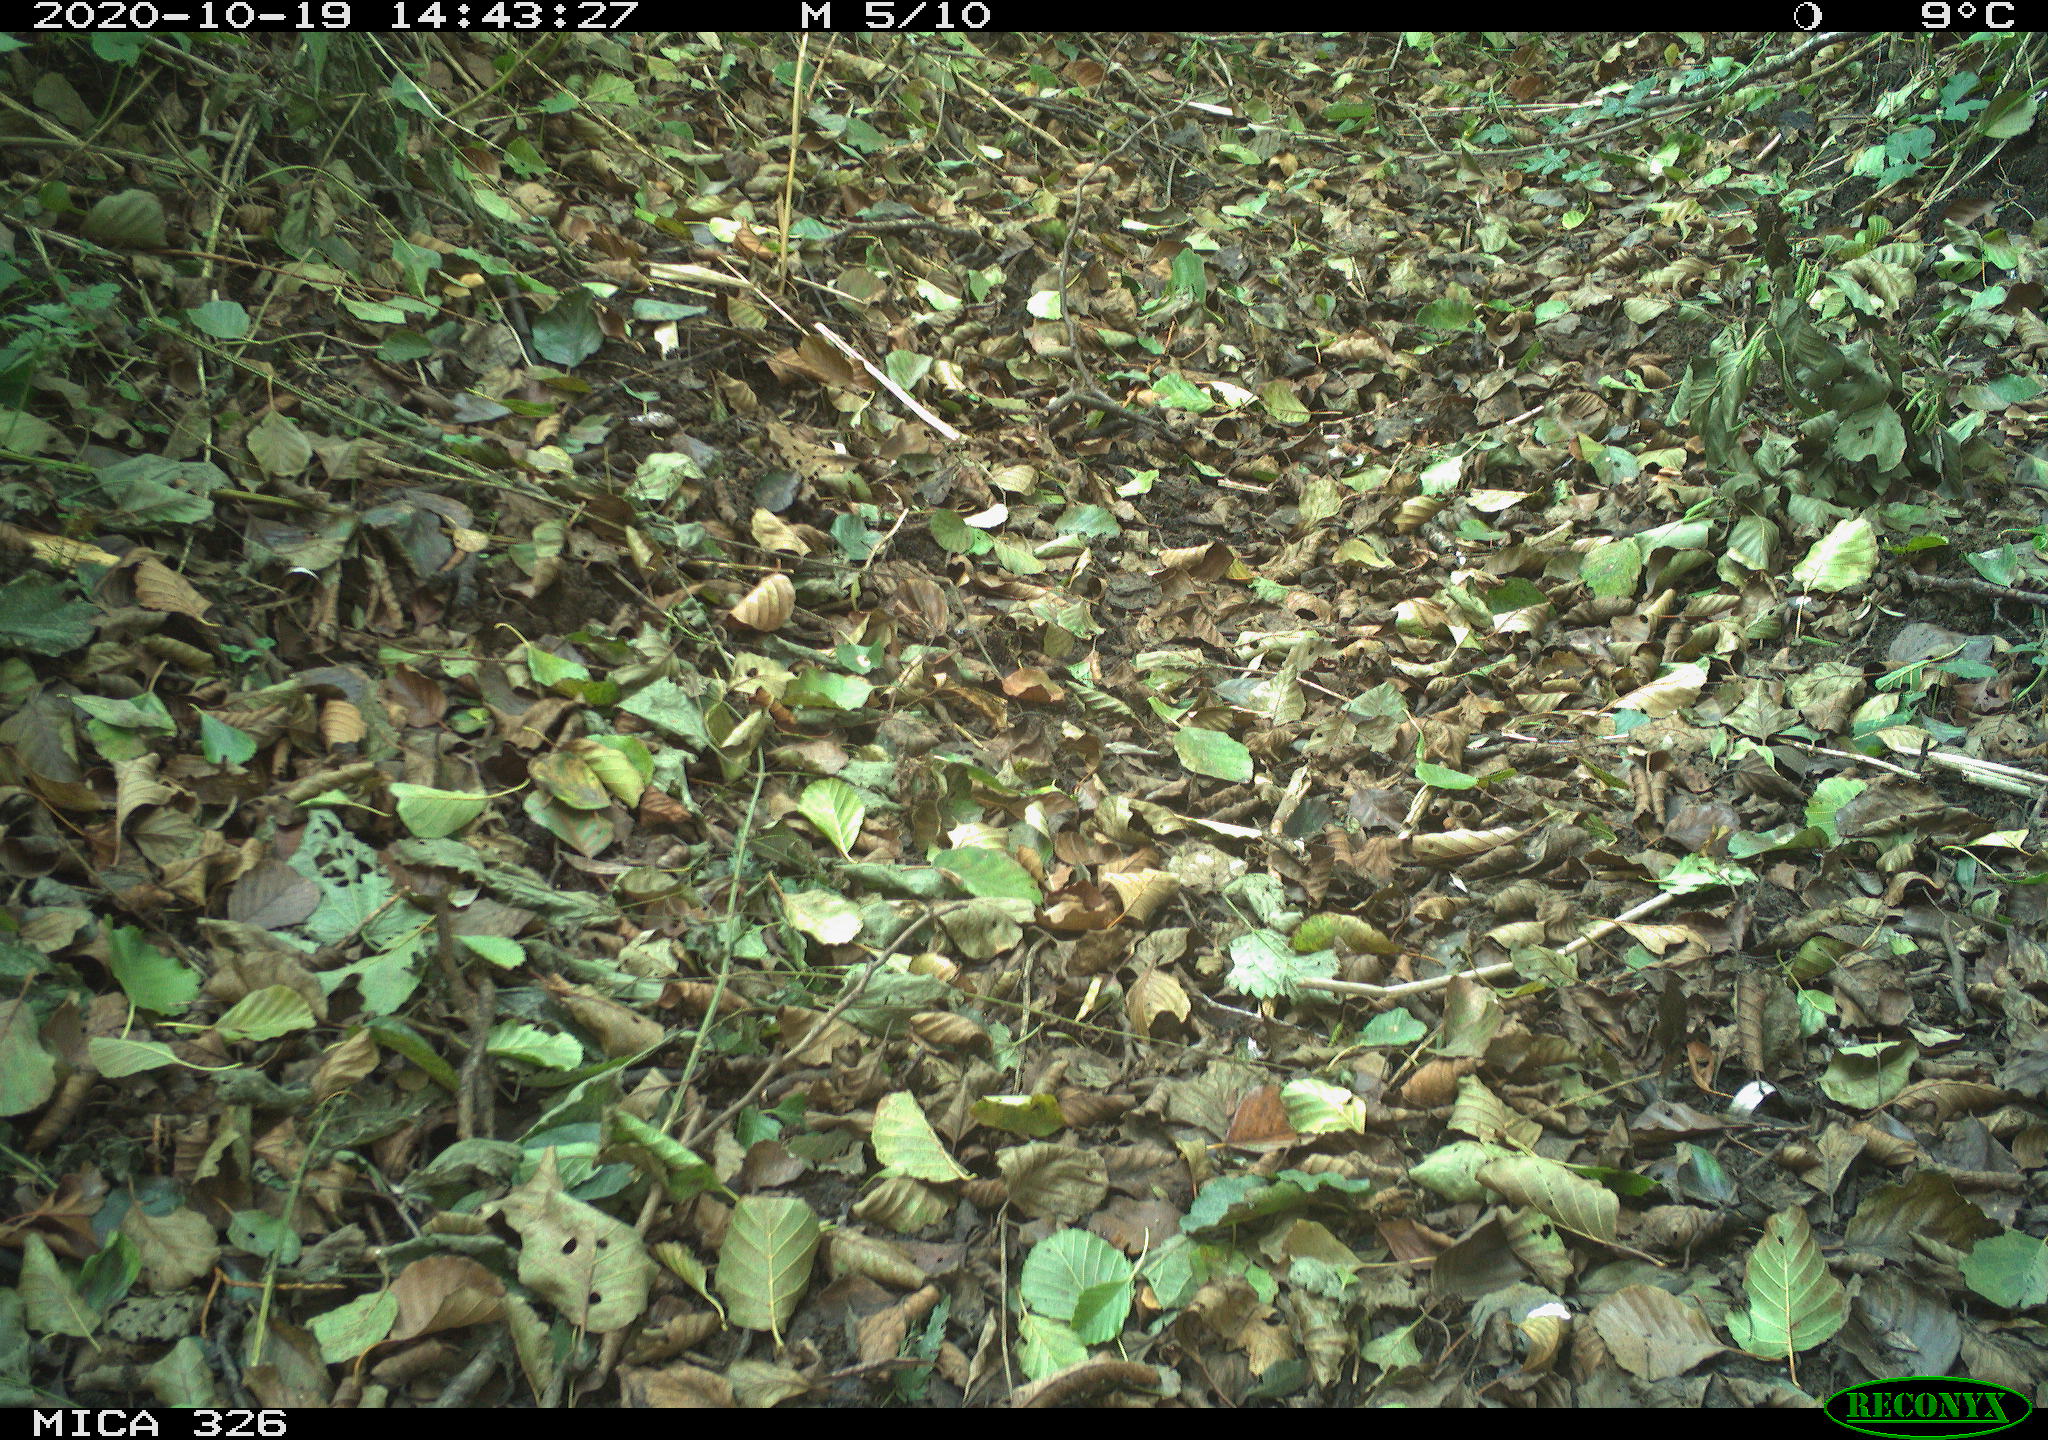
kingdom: Animalia
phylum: Chordata
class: Aves
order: Passeriformes
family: Turdidae
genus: Turdus
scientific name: Turdus merula
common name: Common blackbird
